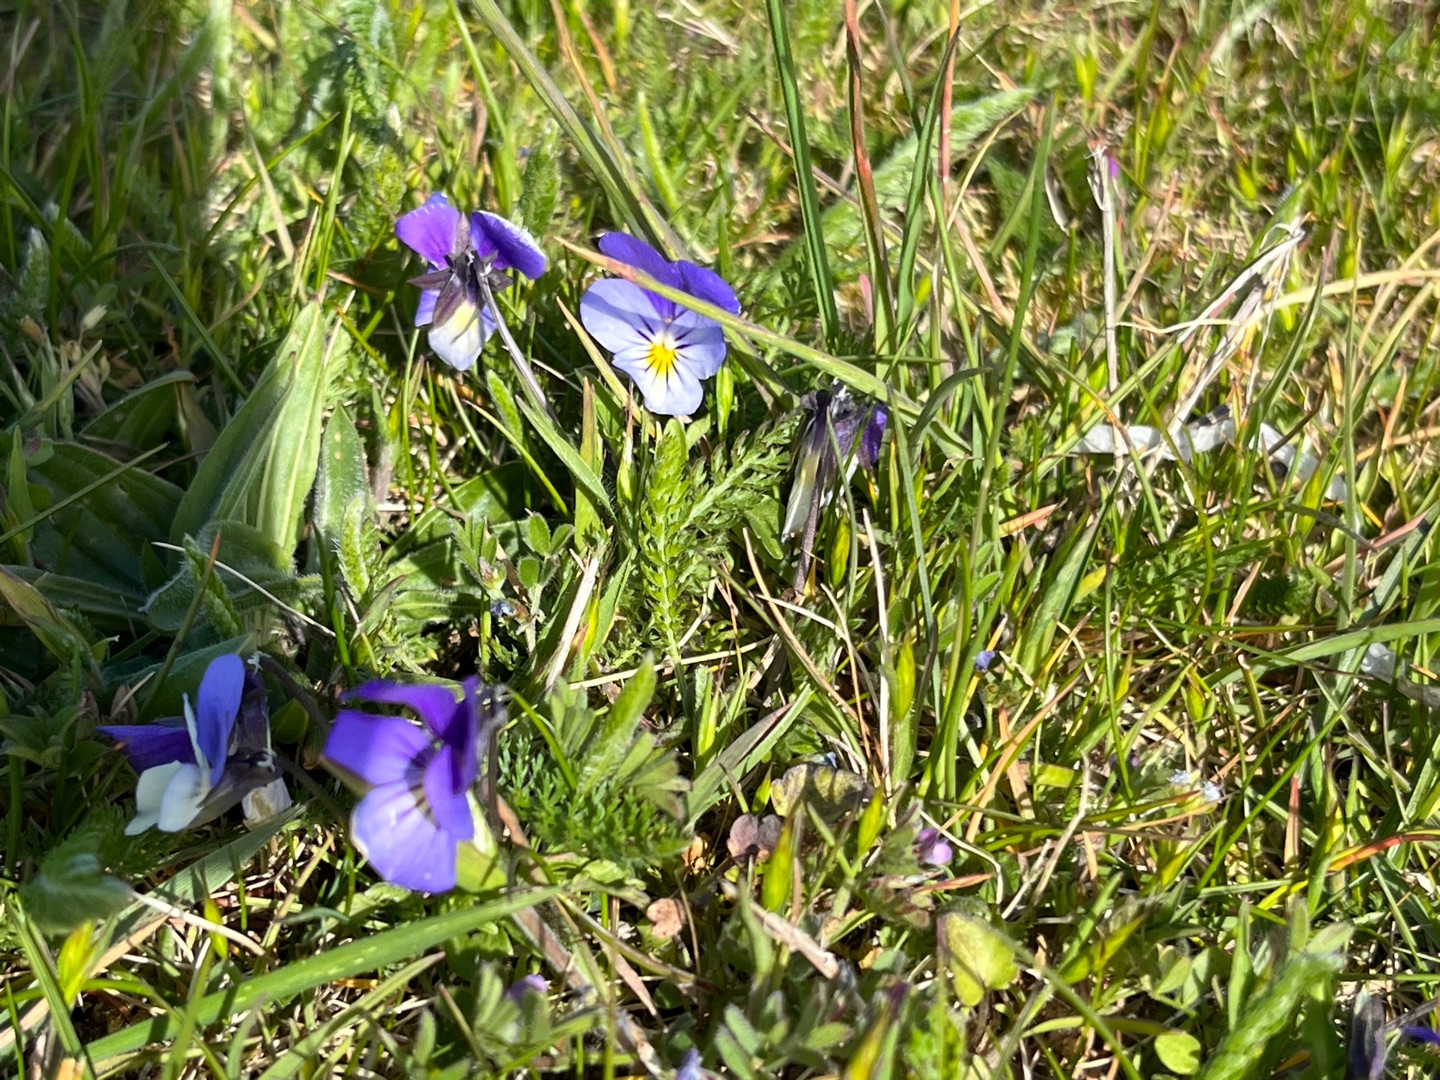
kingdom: Plantae
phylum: Tracheophyta
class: Magnoliopsida
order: Malpighiales
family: Violaceae
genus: Viola
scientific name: Viola tricolor
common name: Stedmoderblomst
